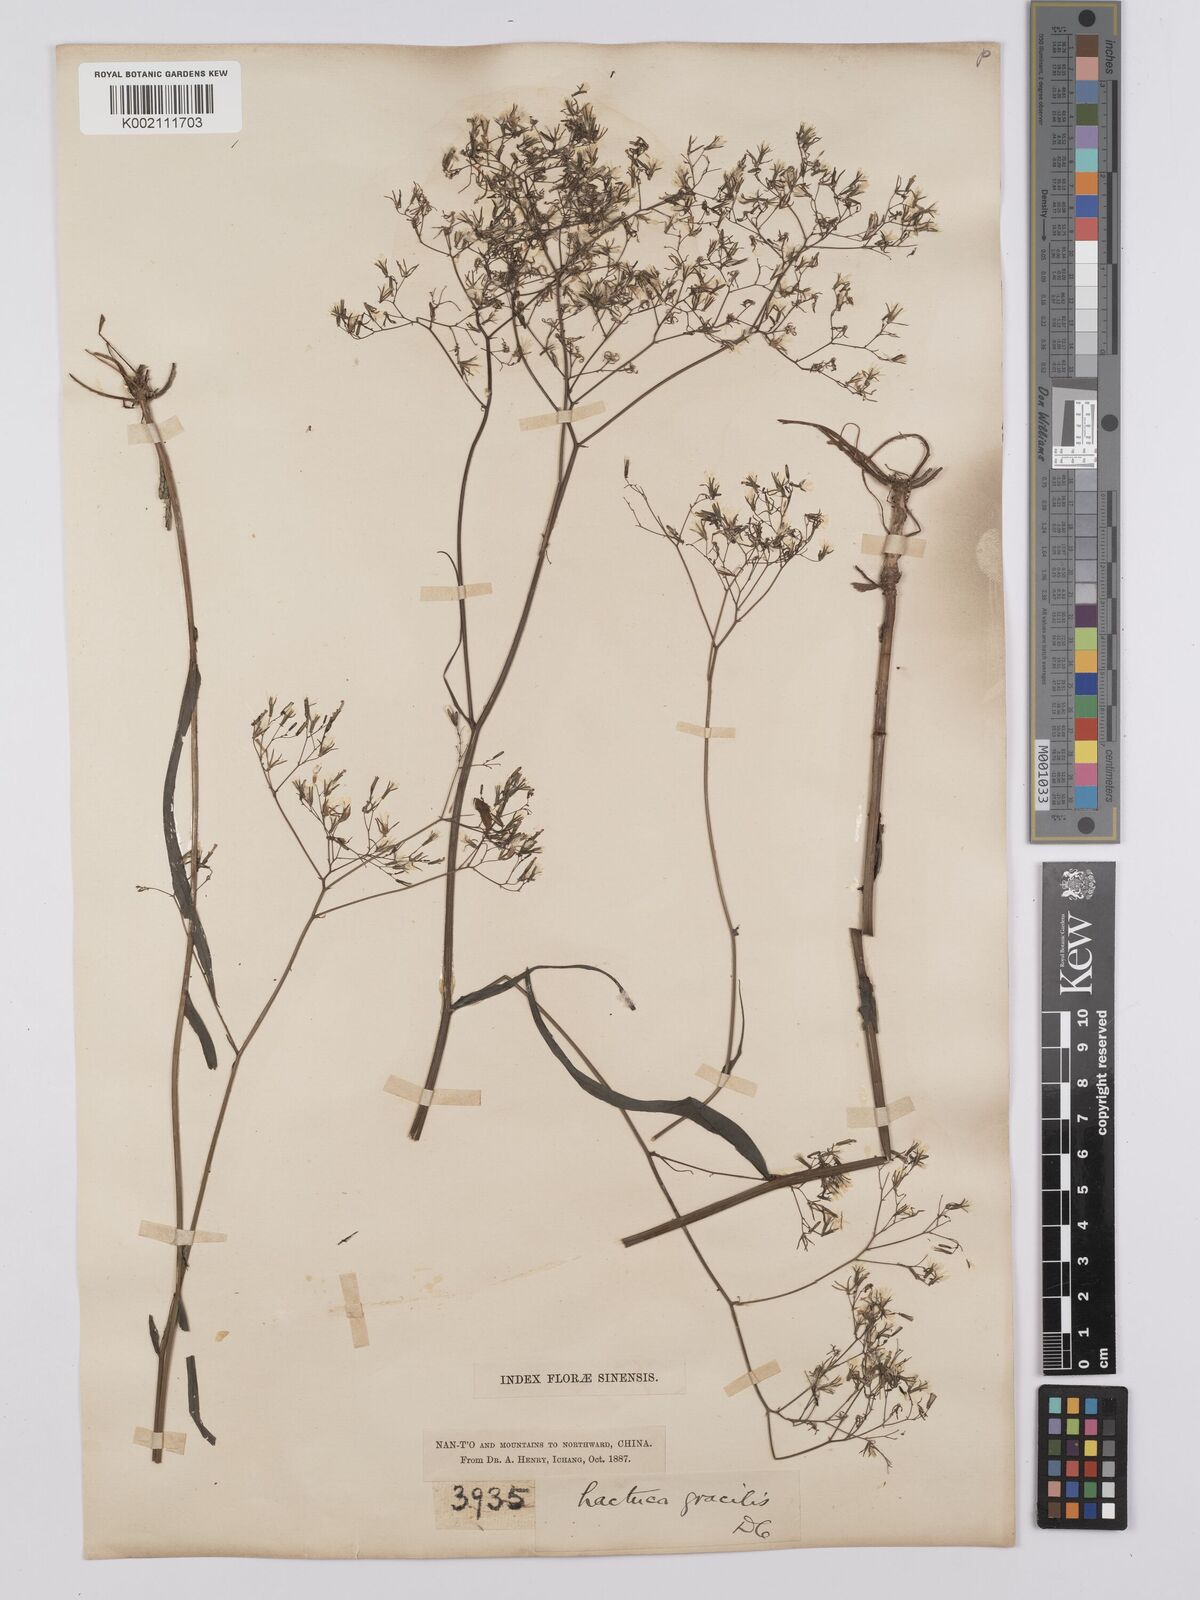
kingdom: Plantae
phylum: Tracheophyta
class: Magnoliopsida
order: Asterales
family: Asteraceae
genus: Ixeridium
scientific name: Ixeridium
